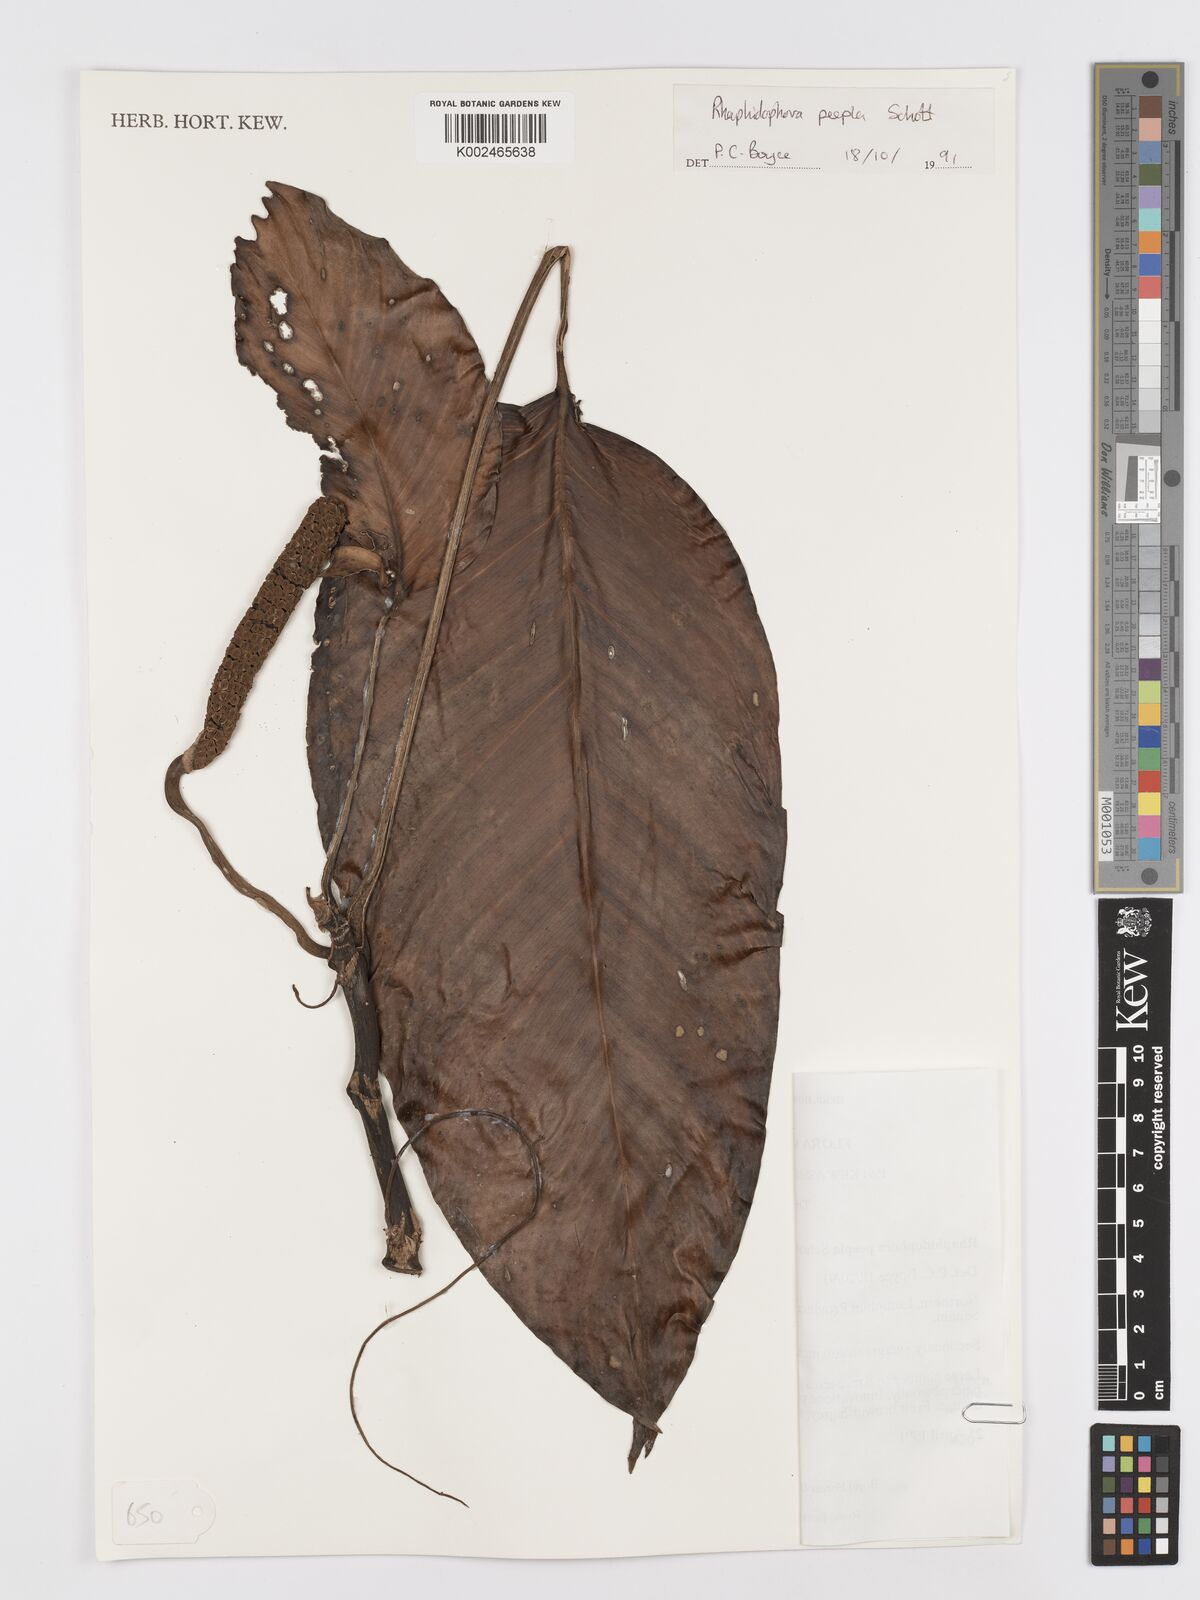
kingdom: Plantae
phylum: Tracheophyta
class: Liliopsida
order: Alismatales
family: Araceae
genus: Rhaphidophora
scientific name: Rhaphidophora peepla
